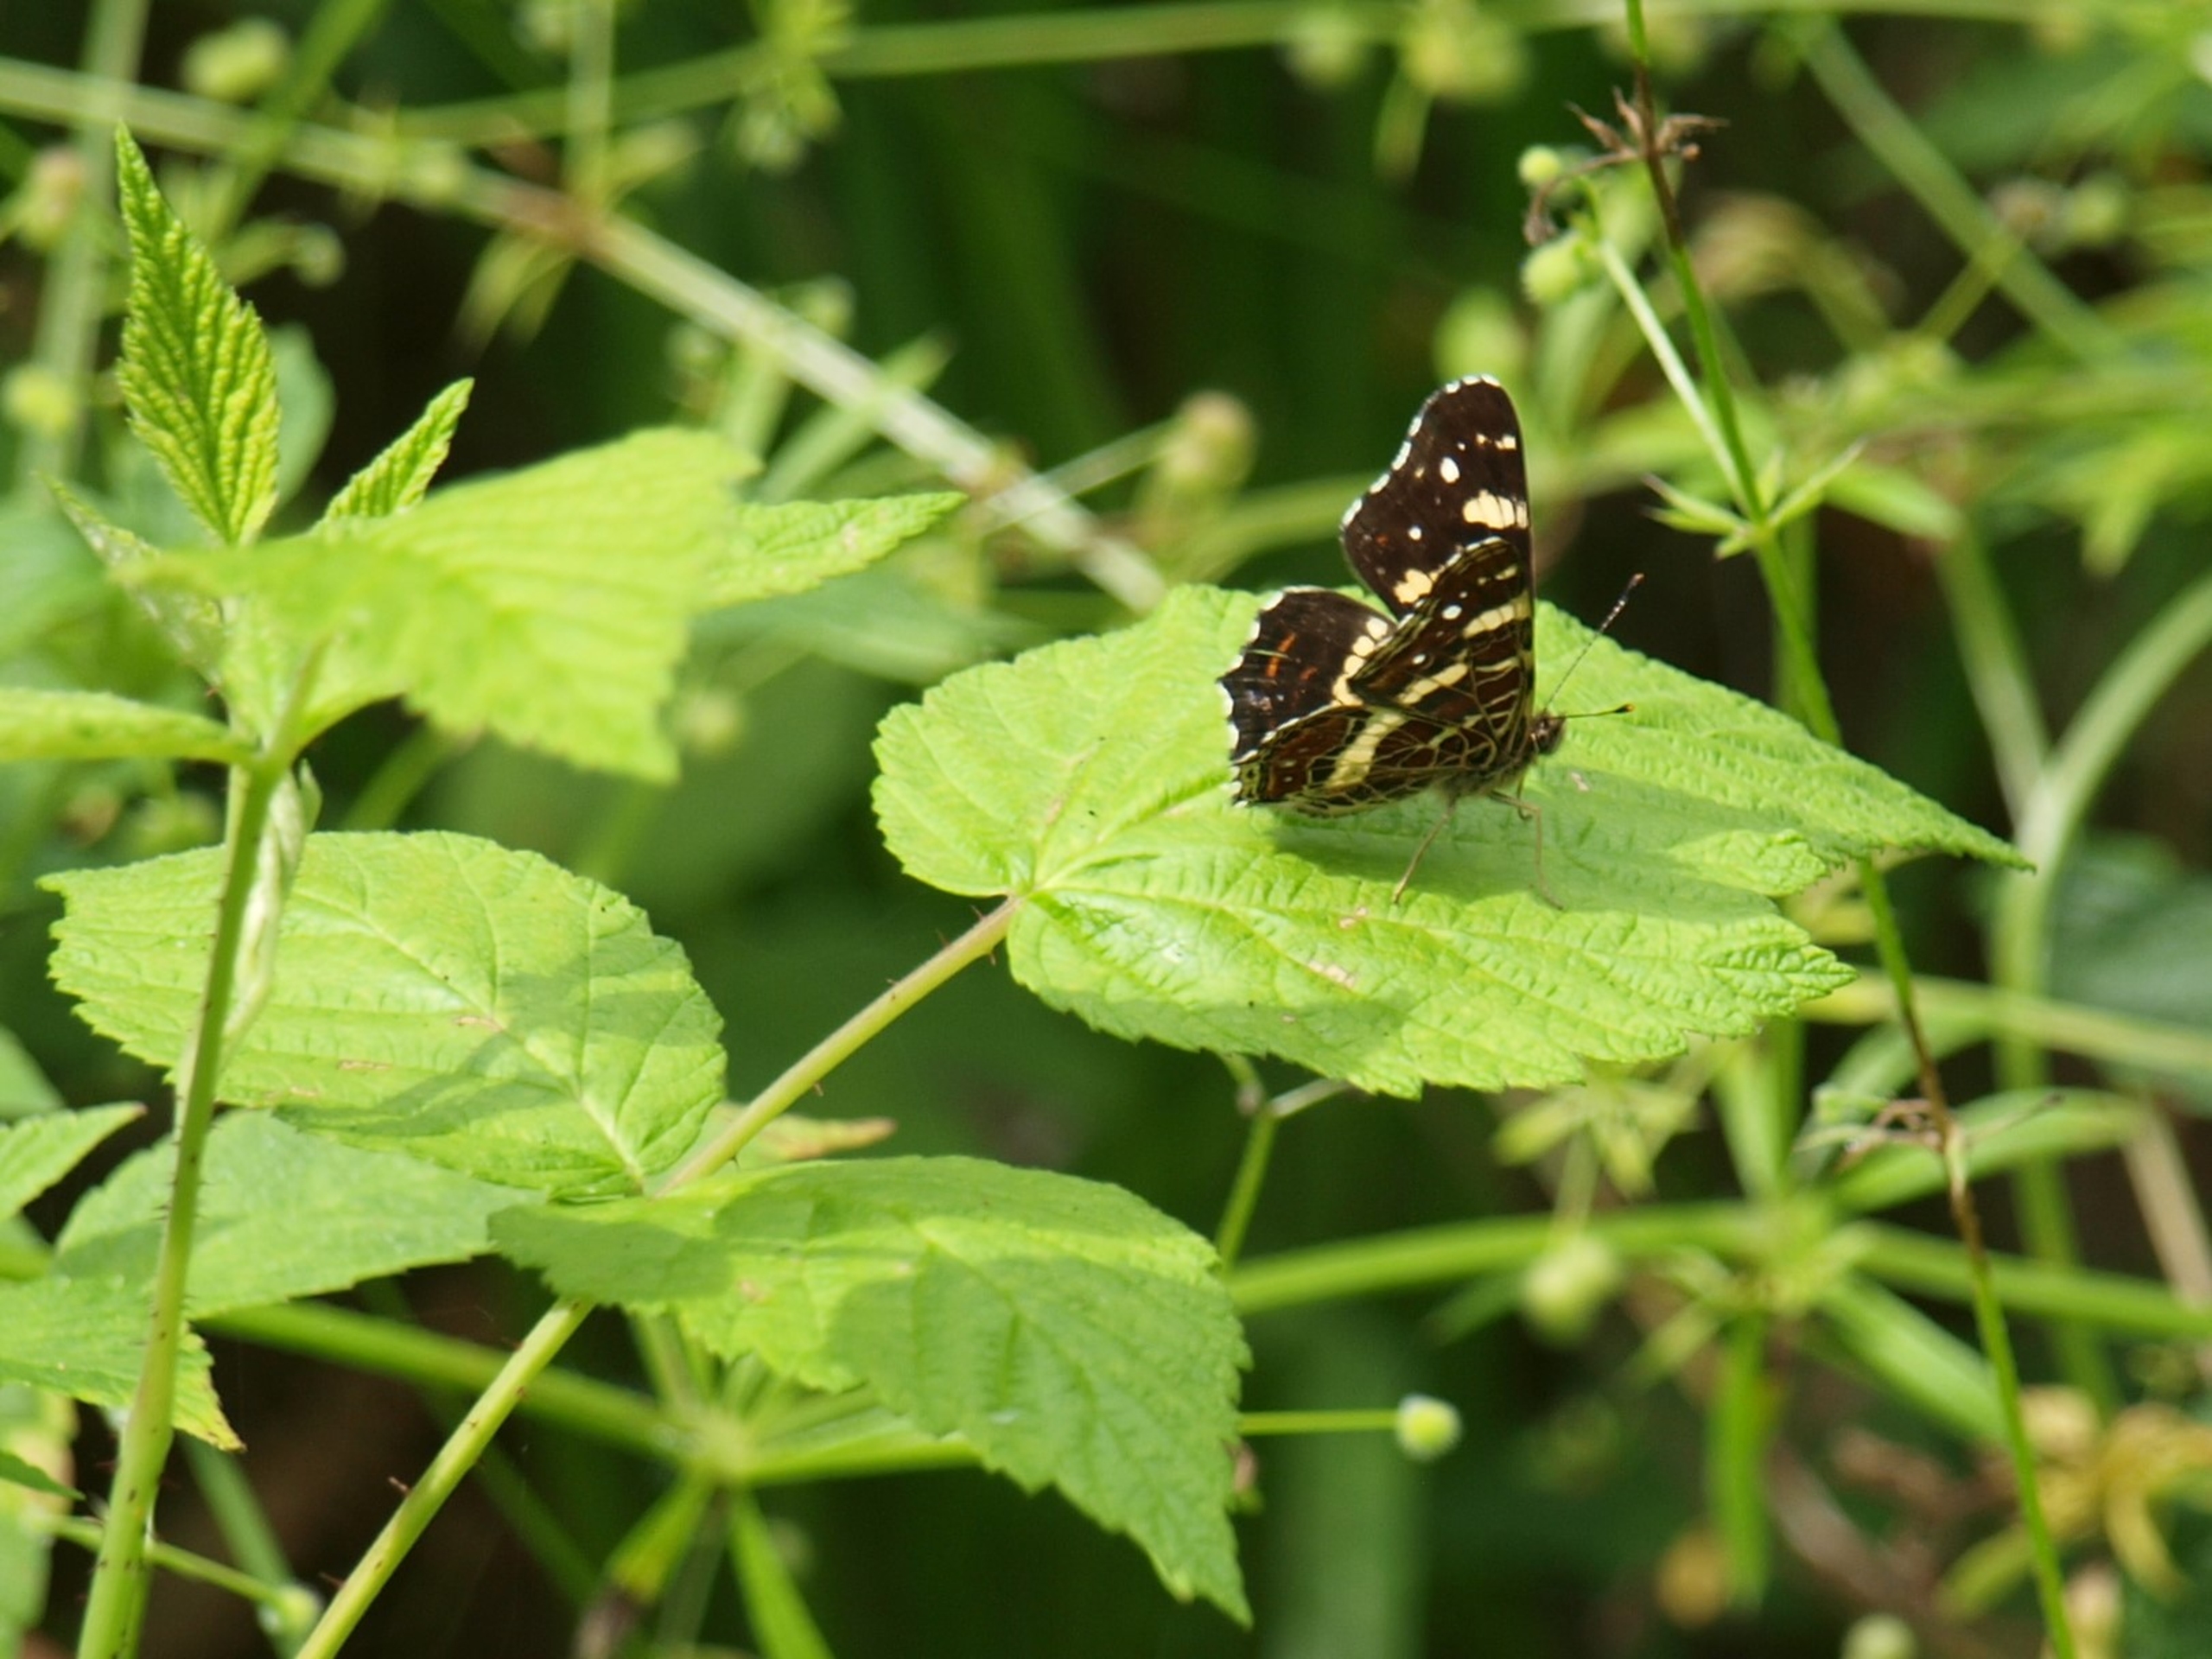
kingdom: Animalia
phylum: Arthropoda
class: Insecta
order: Lepidoptera
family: Nymphalidae
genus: Araschnia
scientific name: Araschnia levana
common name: Nældesommerfugl
